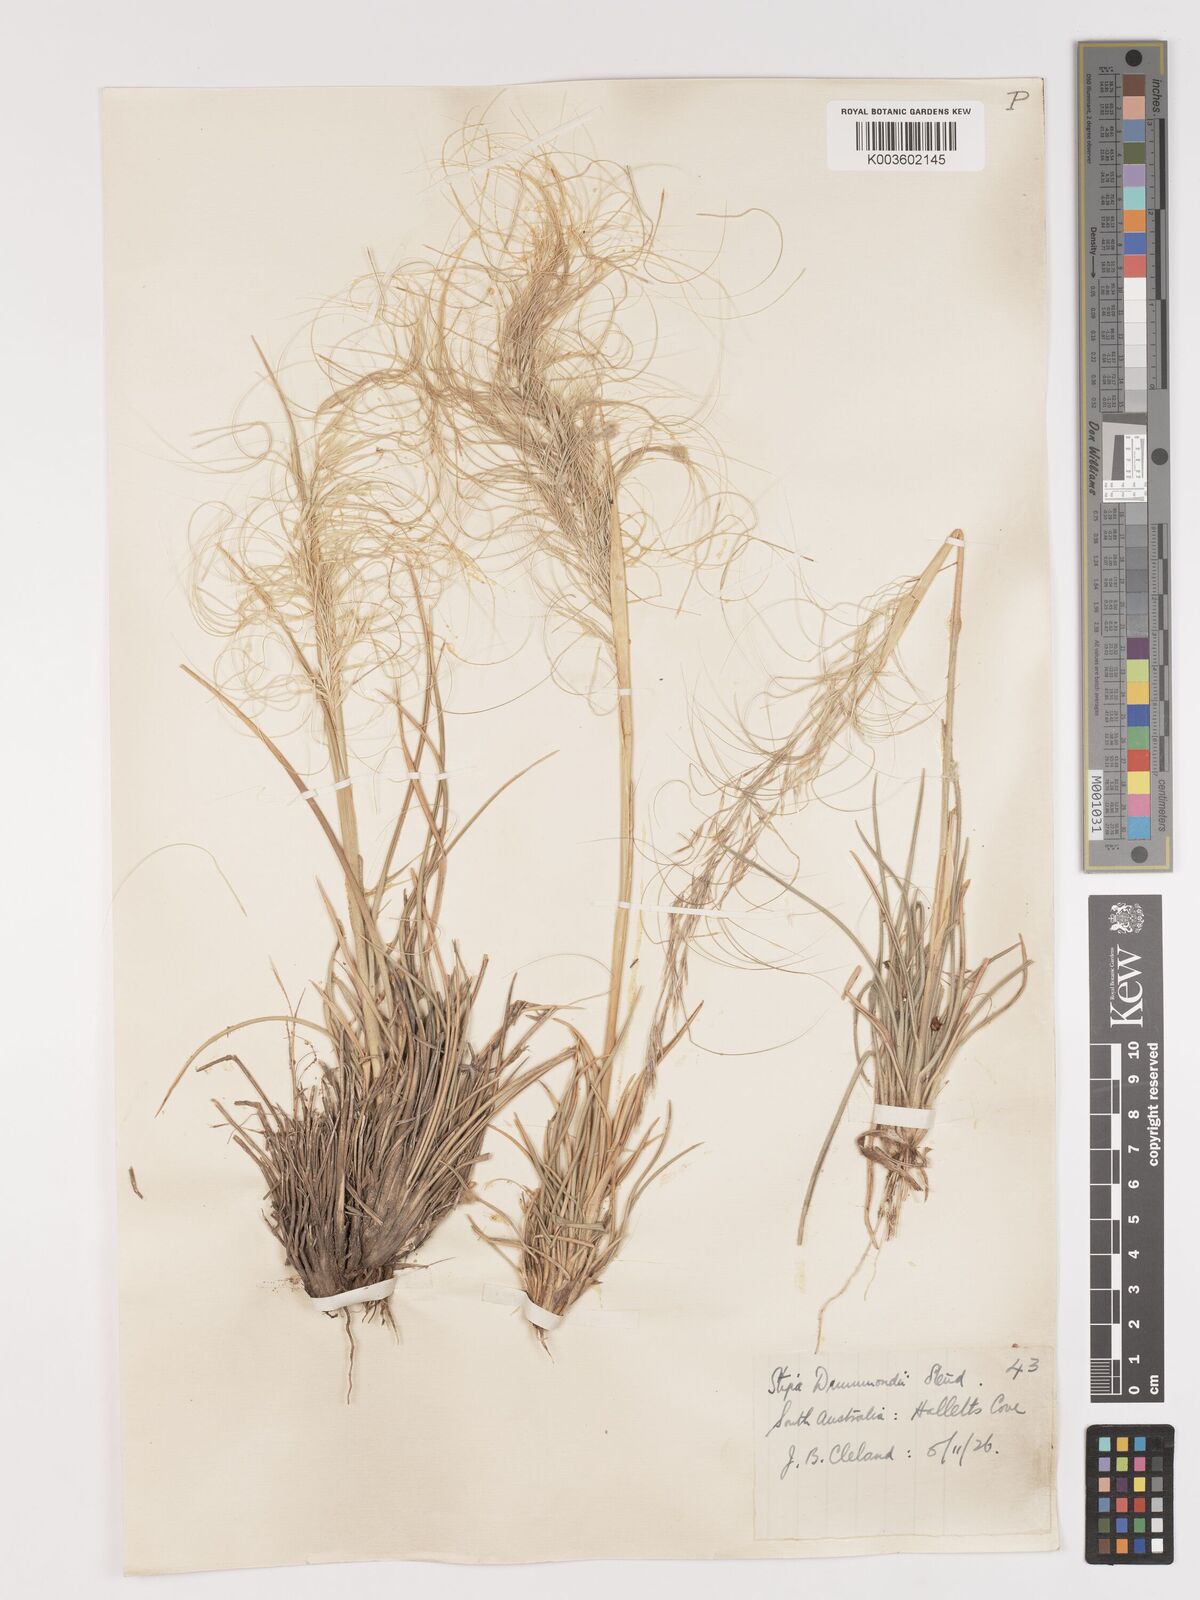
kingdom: Plantae
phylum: Tracheophyta
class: Liliopsida
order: Poales
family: Poaceae
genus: Austrostipa
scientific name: Austrostipa drummondii
